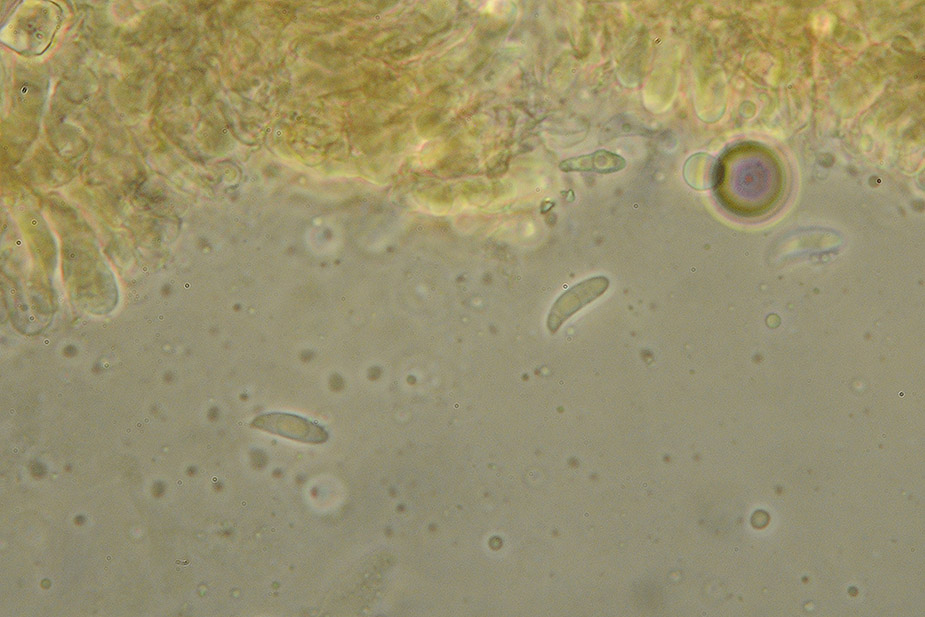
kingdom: Fungi
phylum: Basidiomycota
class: Agaricomycetes
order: Agaricales
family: Typhulaceae
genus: Typhula
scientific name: Typhula caricina
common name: star-trådkølle
